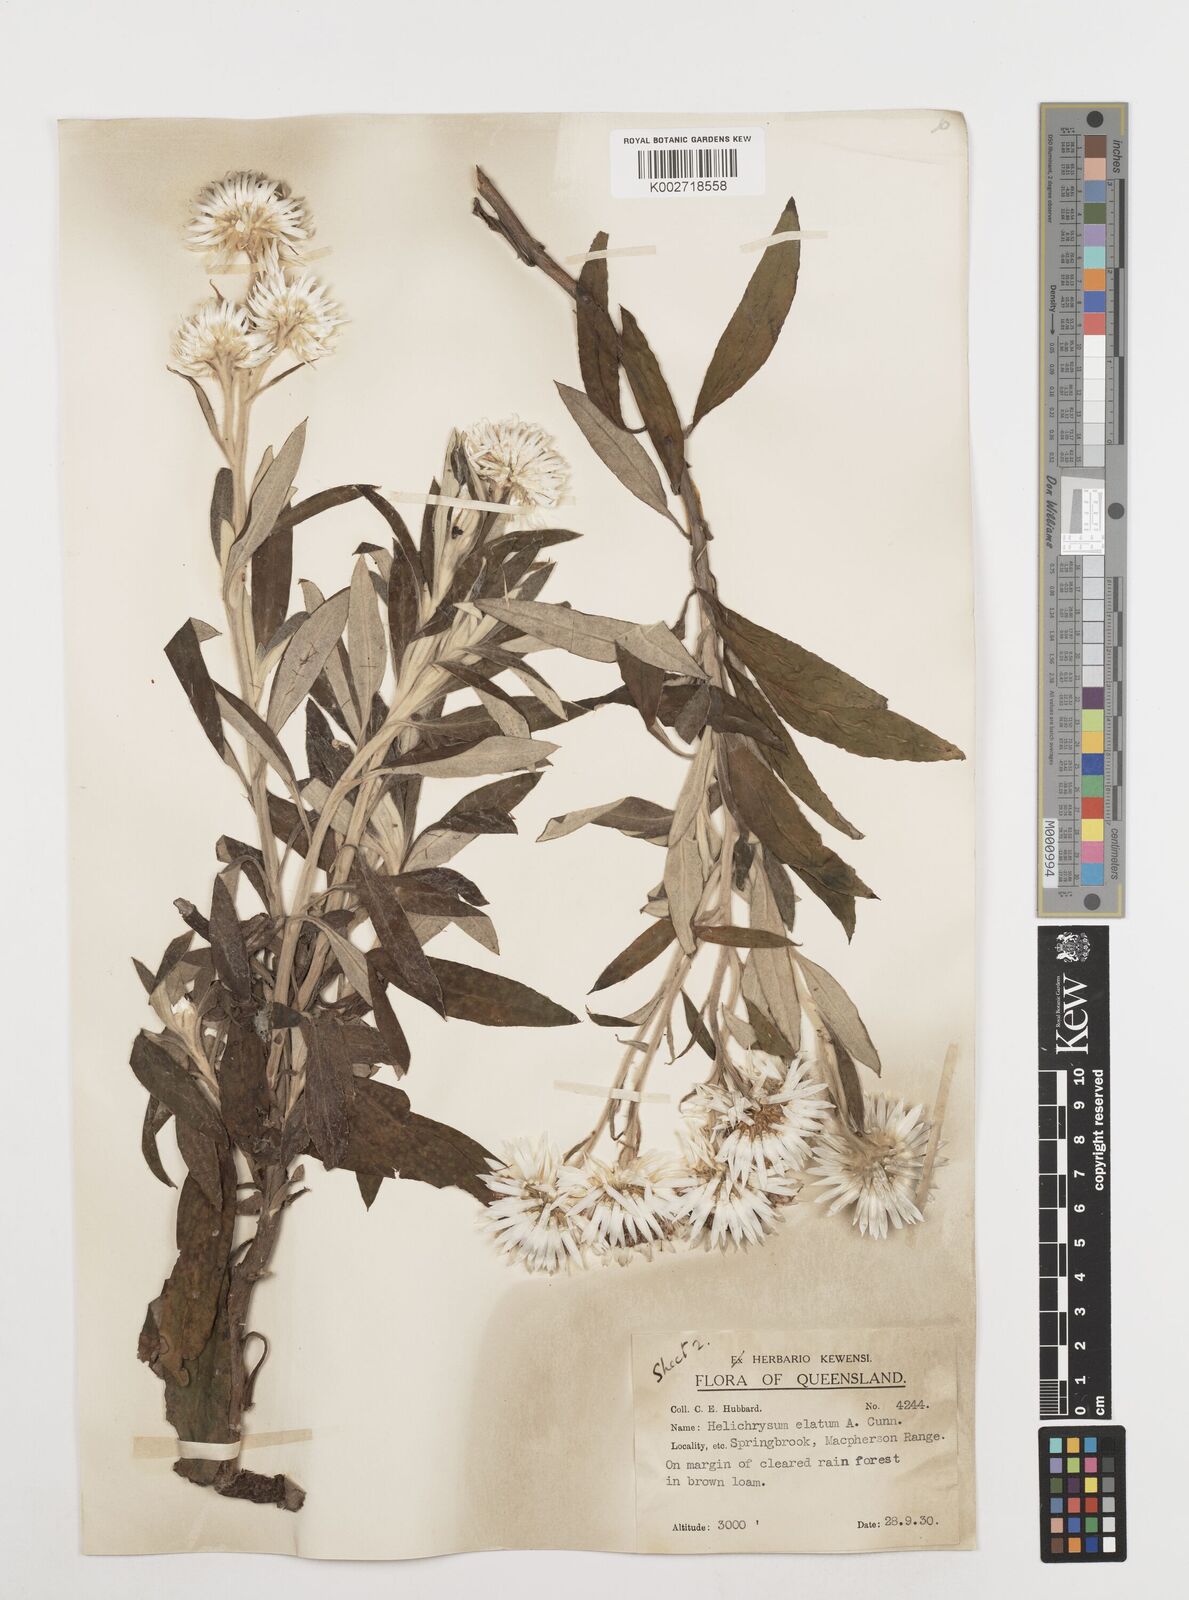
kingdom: Plantae
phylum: Tracheophyta
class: Magnoliopsida
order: Asterales
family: Asteraceae
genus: Leucozoma
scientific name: Leucozoma elatum
